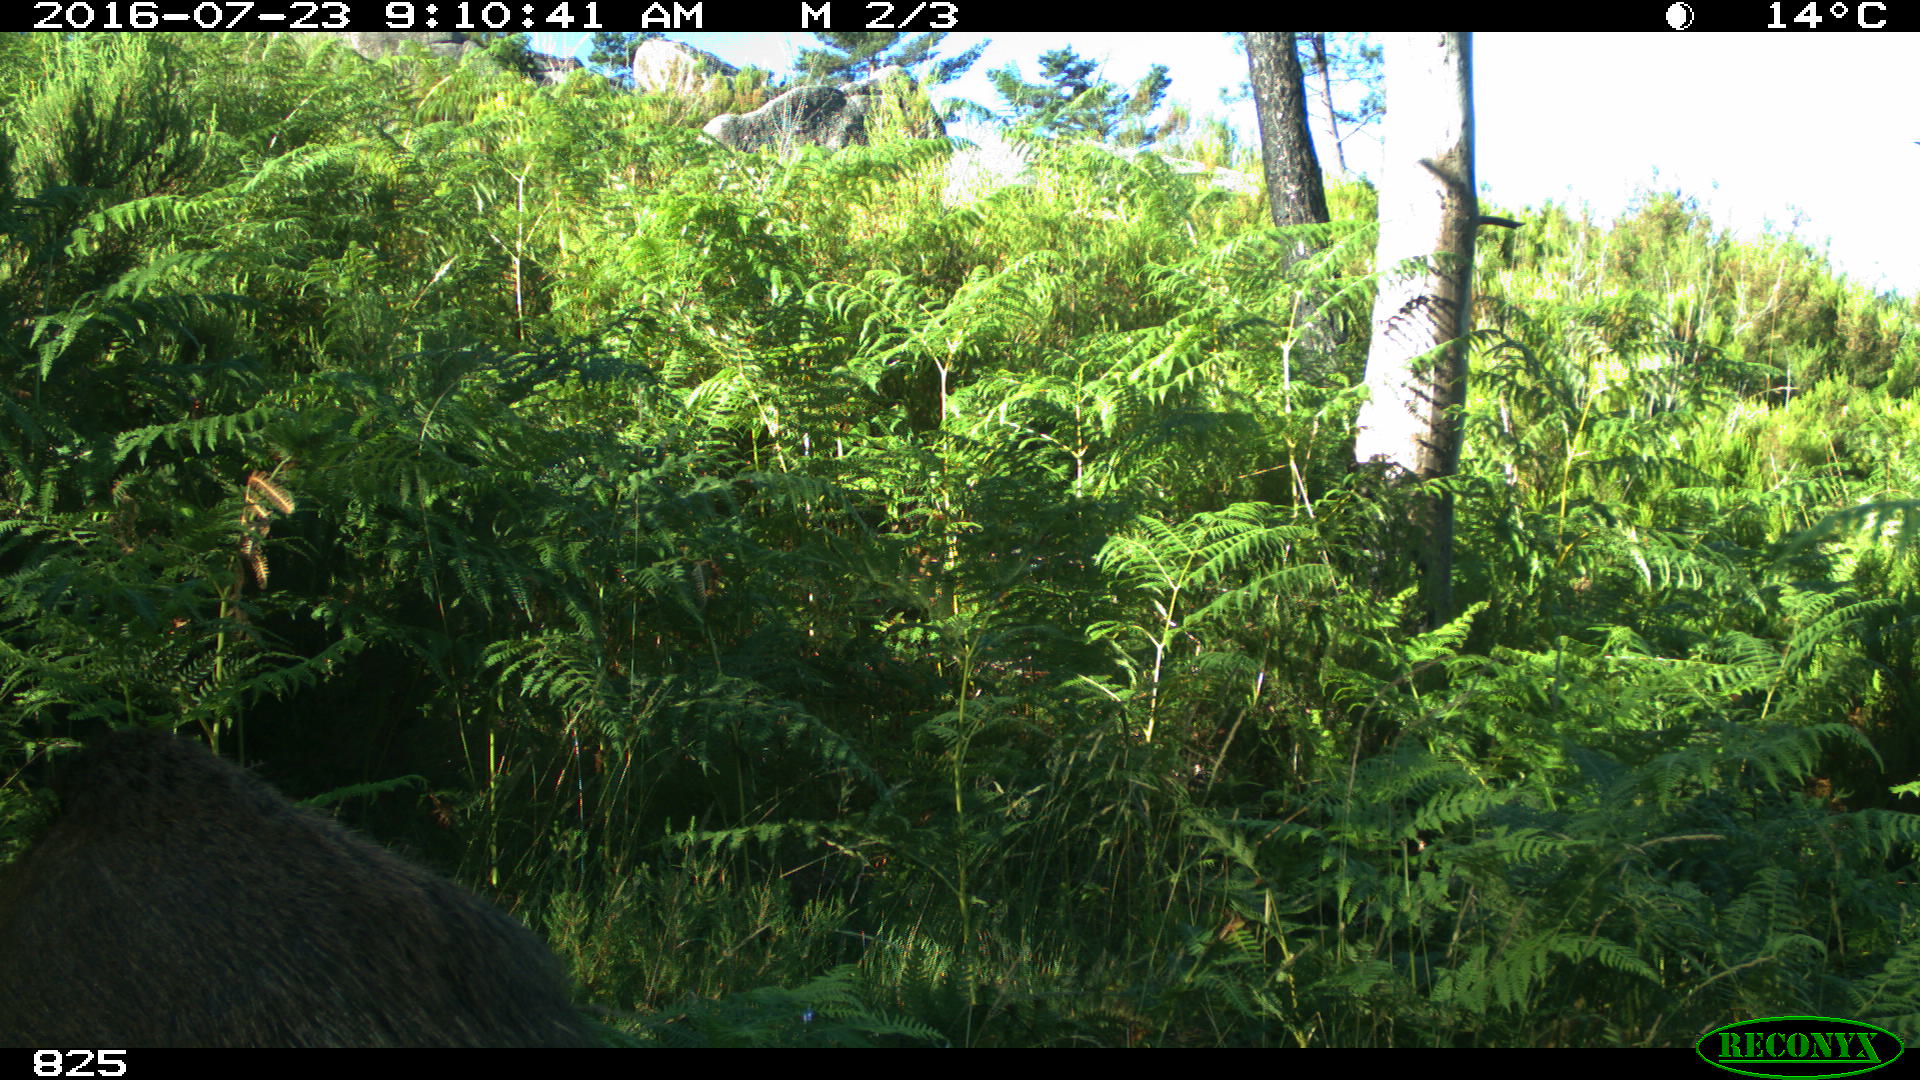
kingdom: Animalia
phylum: Chordata
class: Mammalia
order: Artiodactyla
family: Suidae
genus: Sus
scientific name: Sus scrofa
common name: Wild boar
